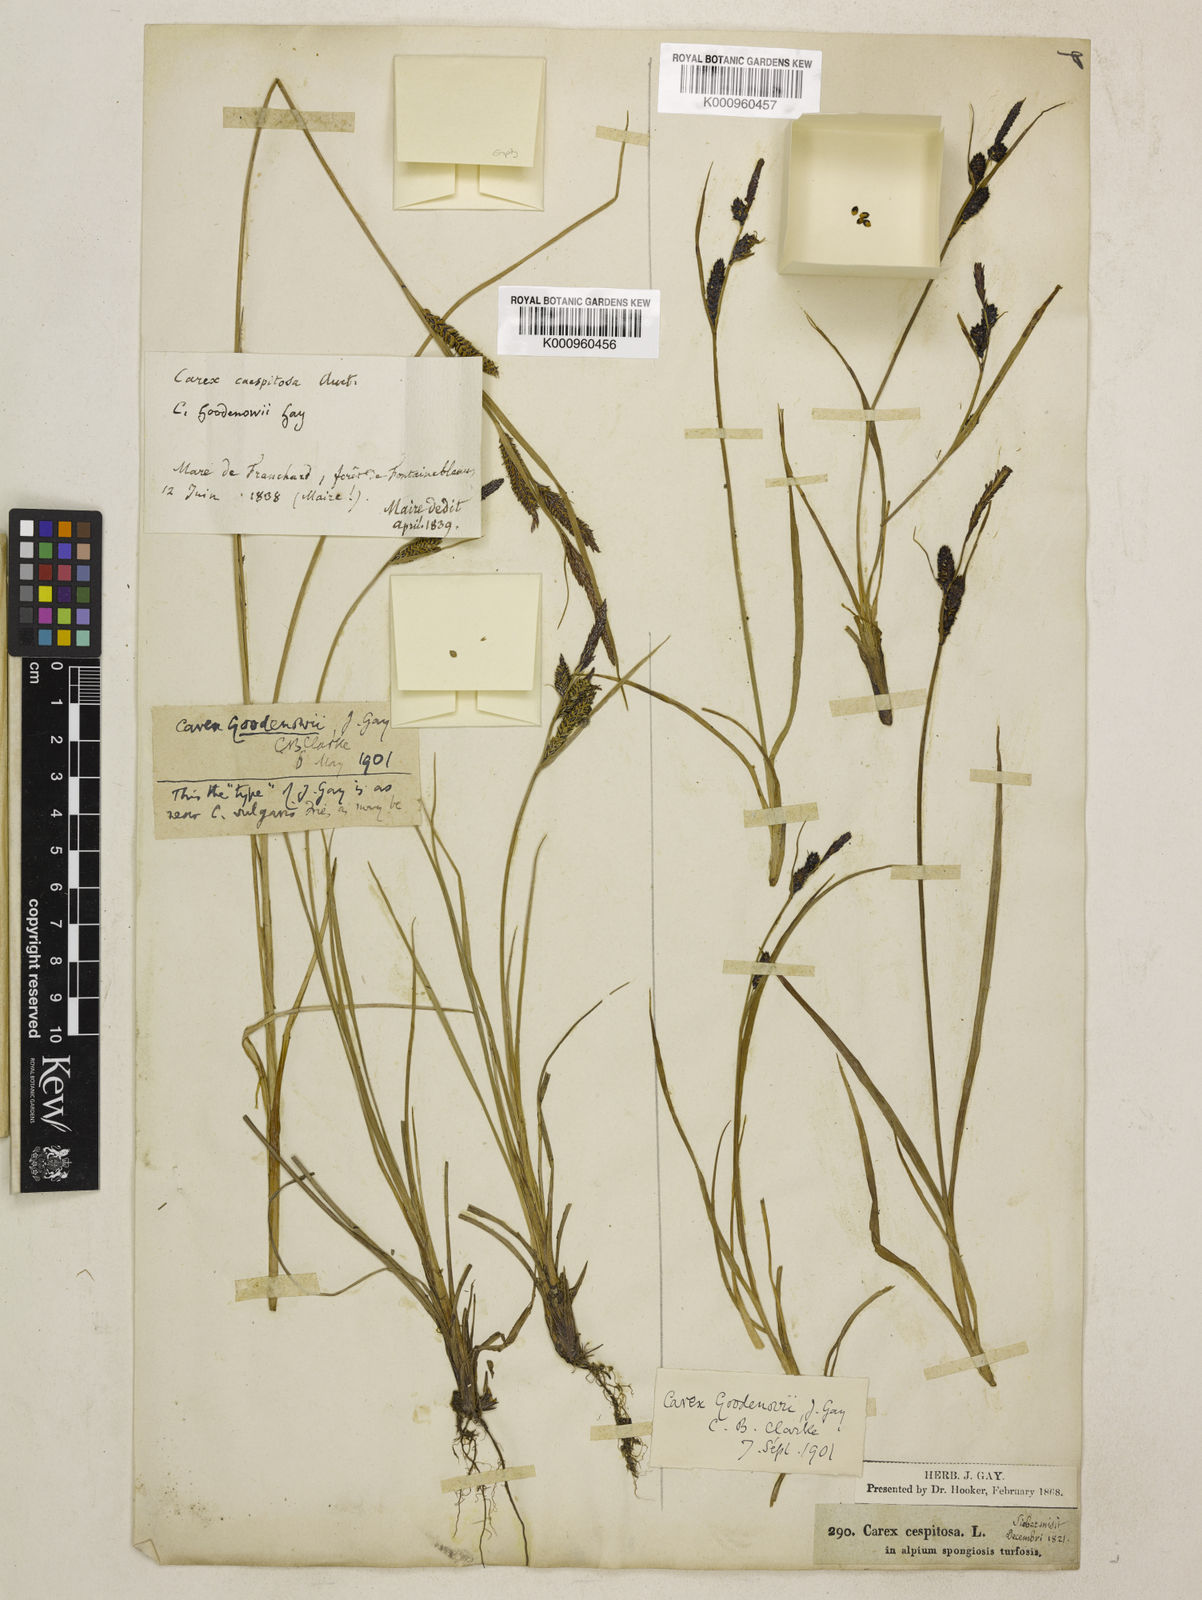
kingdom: Plantae
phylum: Tracheophyta
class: Liliopsida
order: Poales
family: Cyperaceae
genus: Carex
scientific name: Carex nigra
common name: Common sedge
